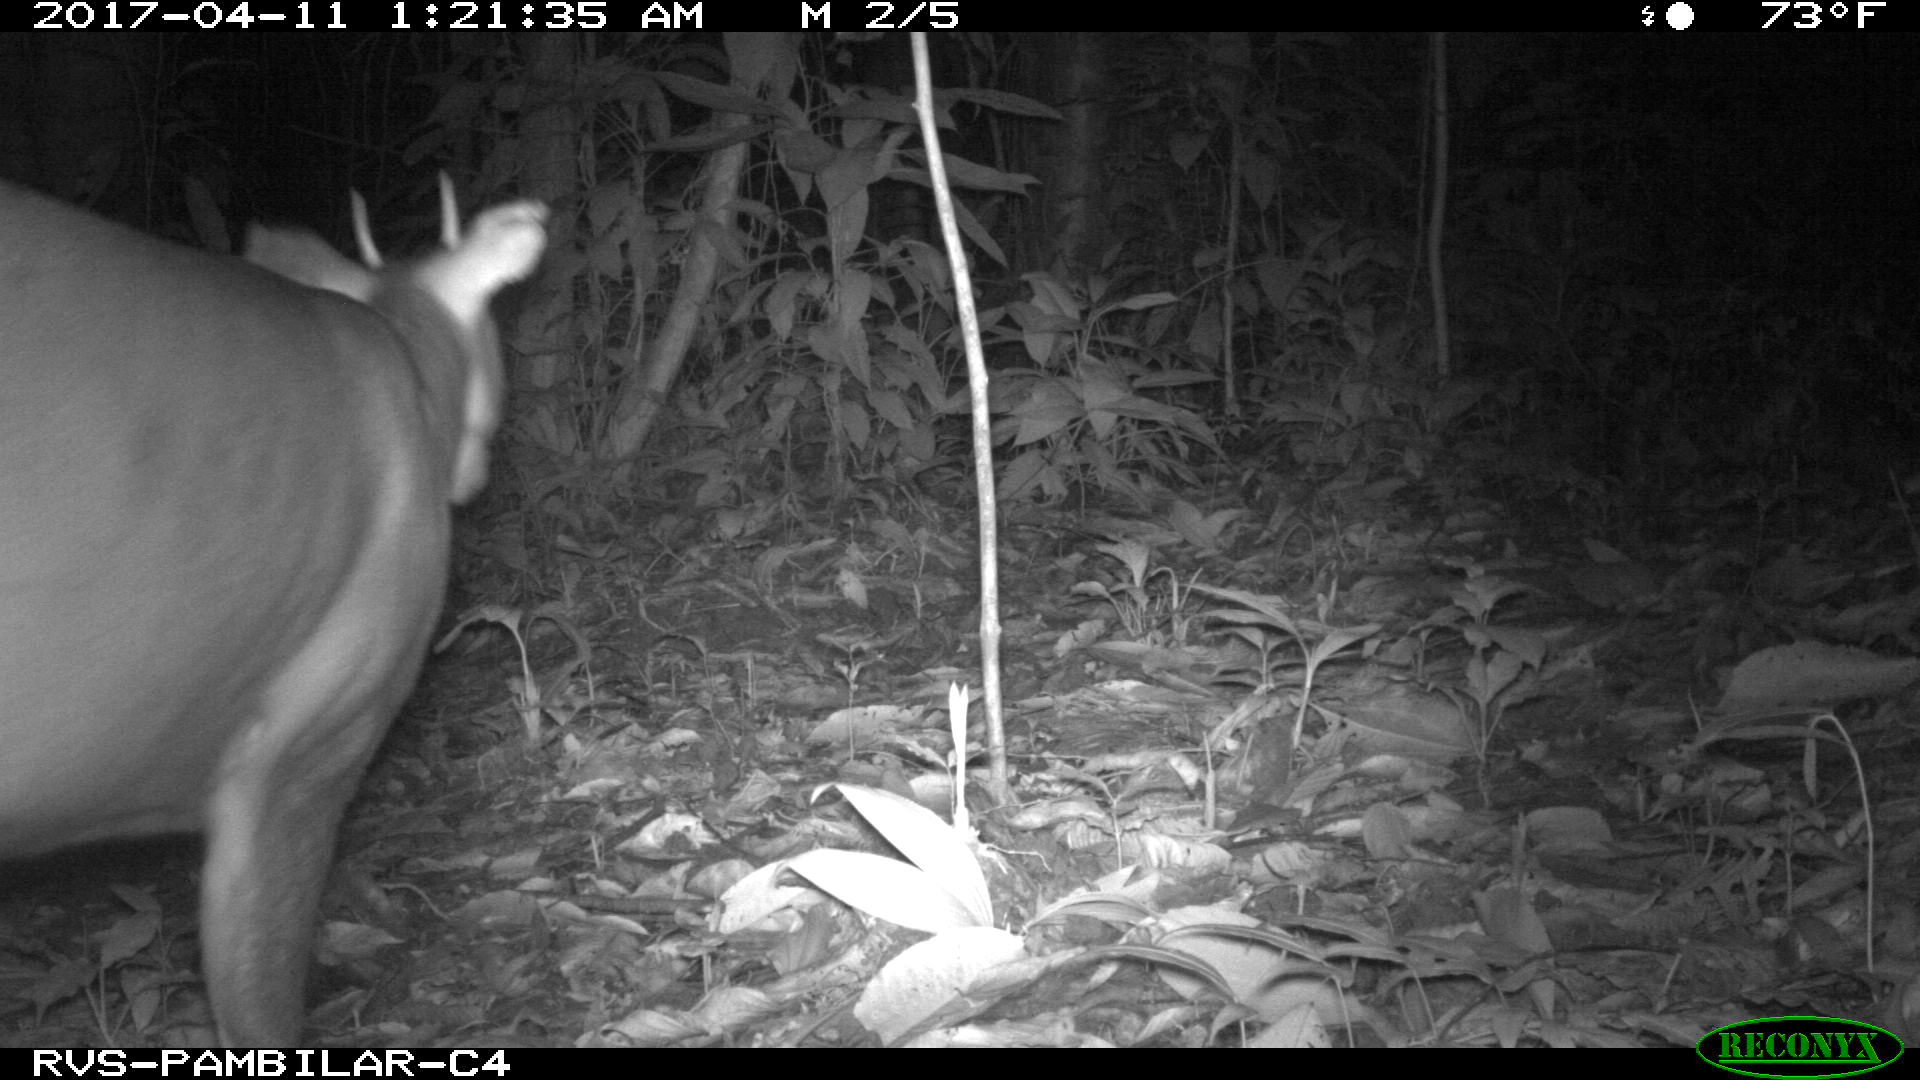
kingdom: Animalia
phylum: Chordata
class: Mammalia
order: Artiodactyla
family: Cervidae
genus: Mazama
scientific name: Mazama americana
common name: Red brocket
